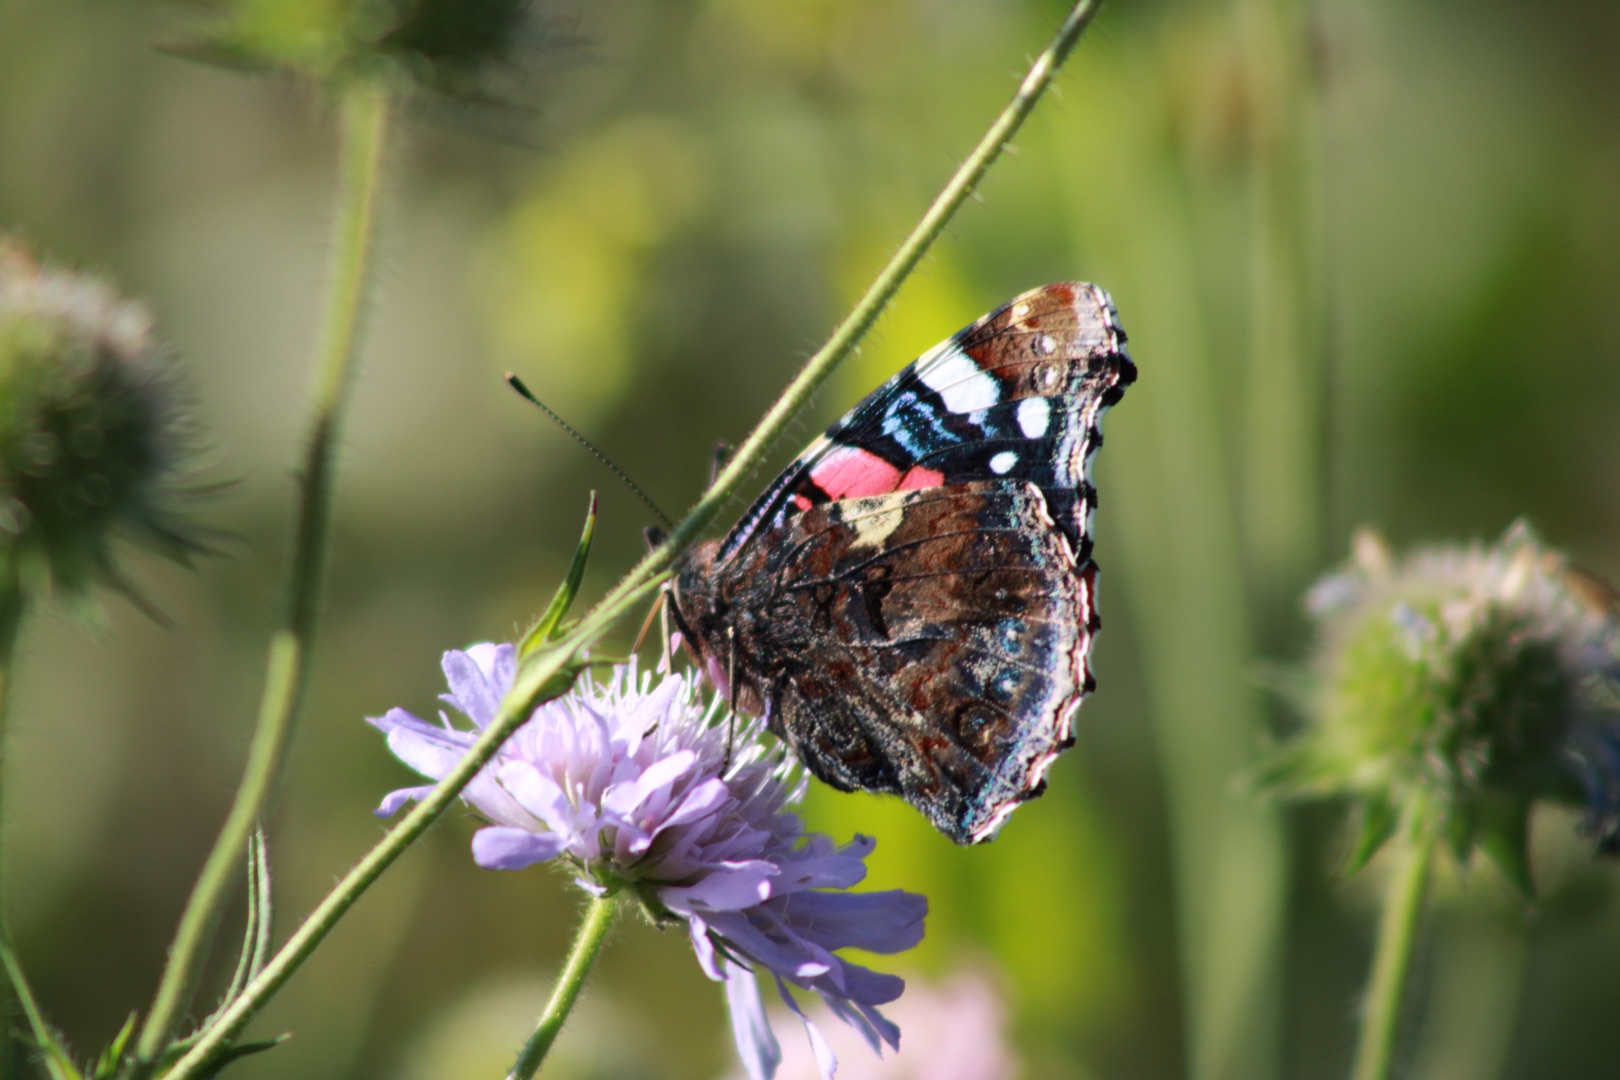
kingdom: Animalia
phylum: Arthropoda
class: Insecta
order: Lepidoptera
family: Nymphalidae
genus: Vanessa
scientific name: Vanessa atalanta
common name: Admiral
